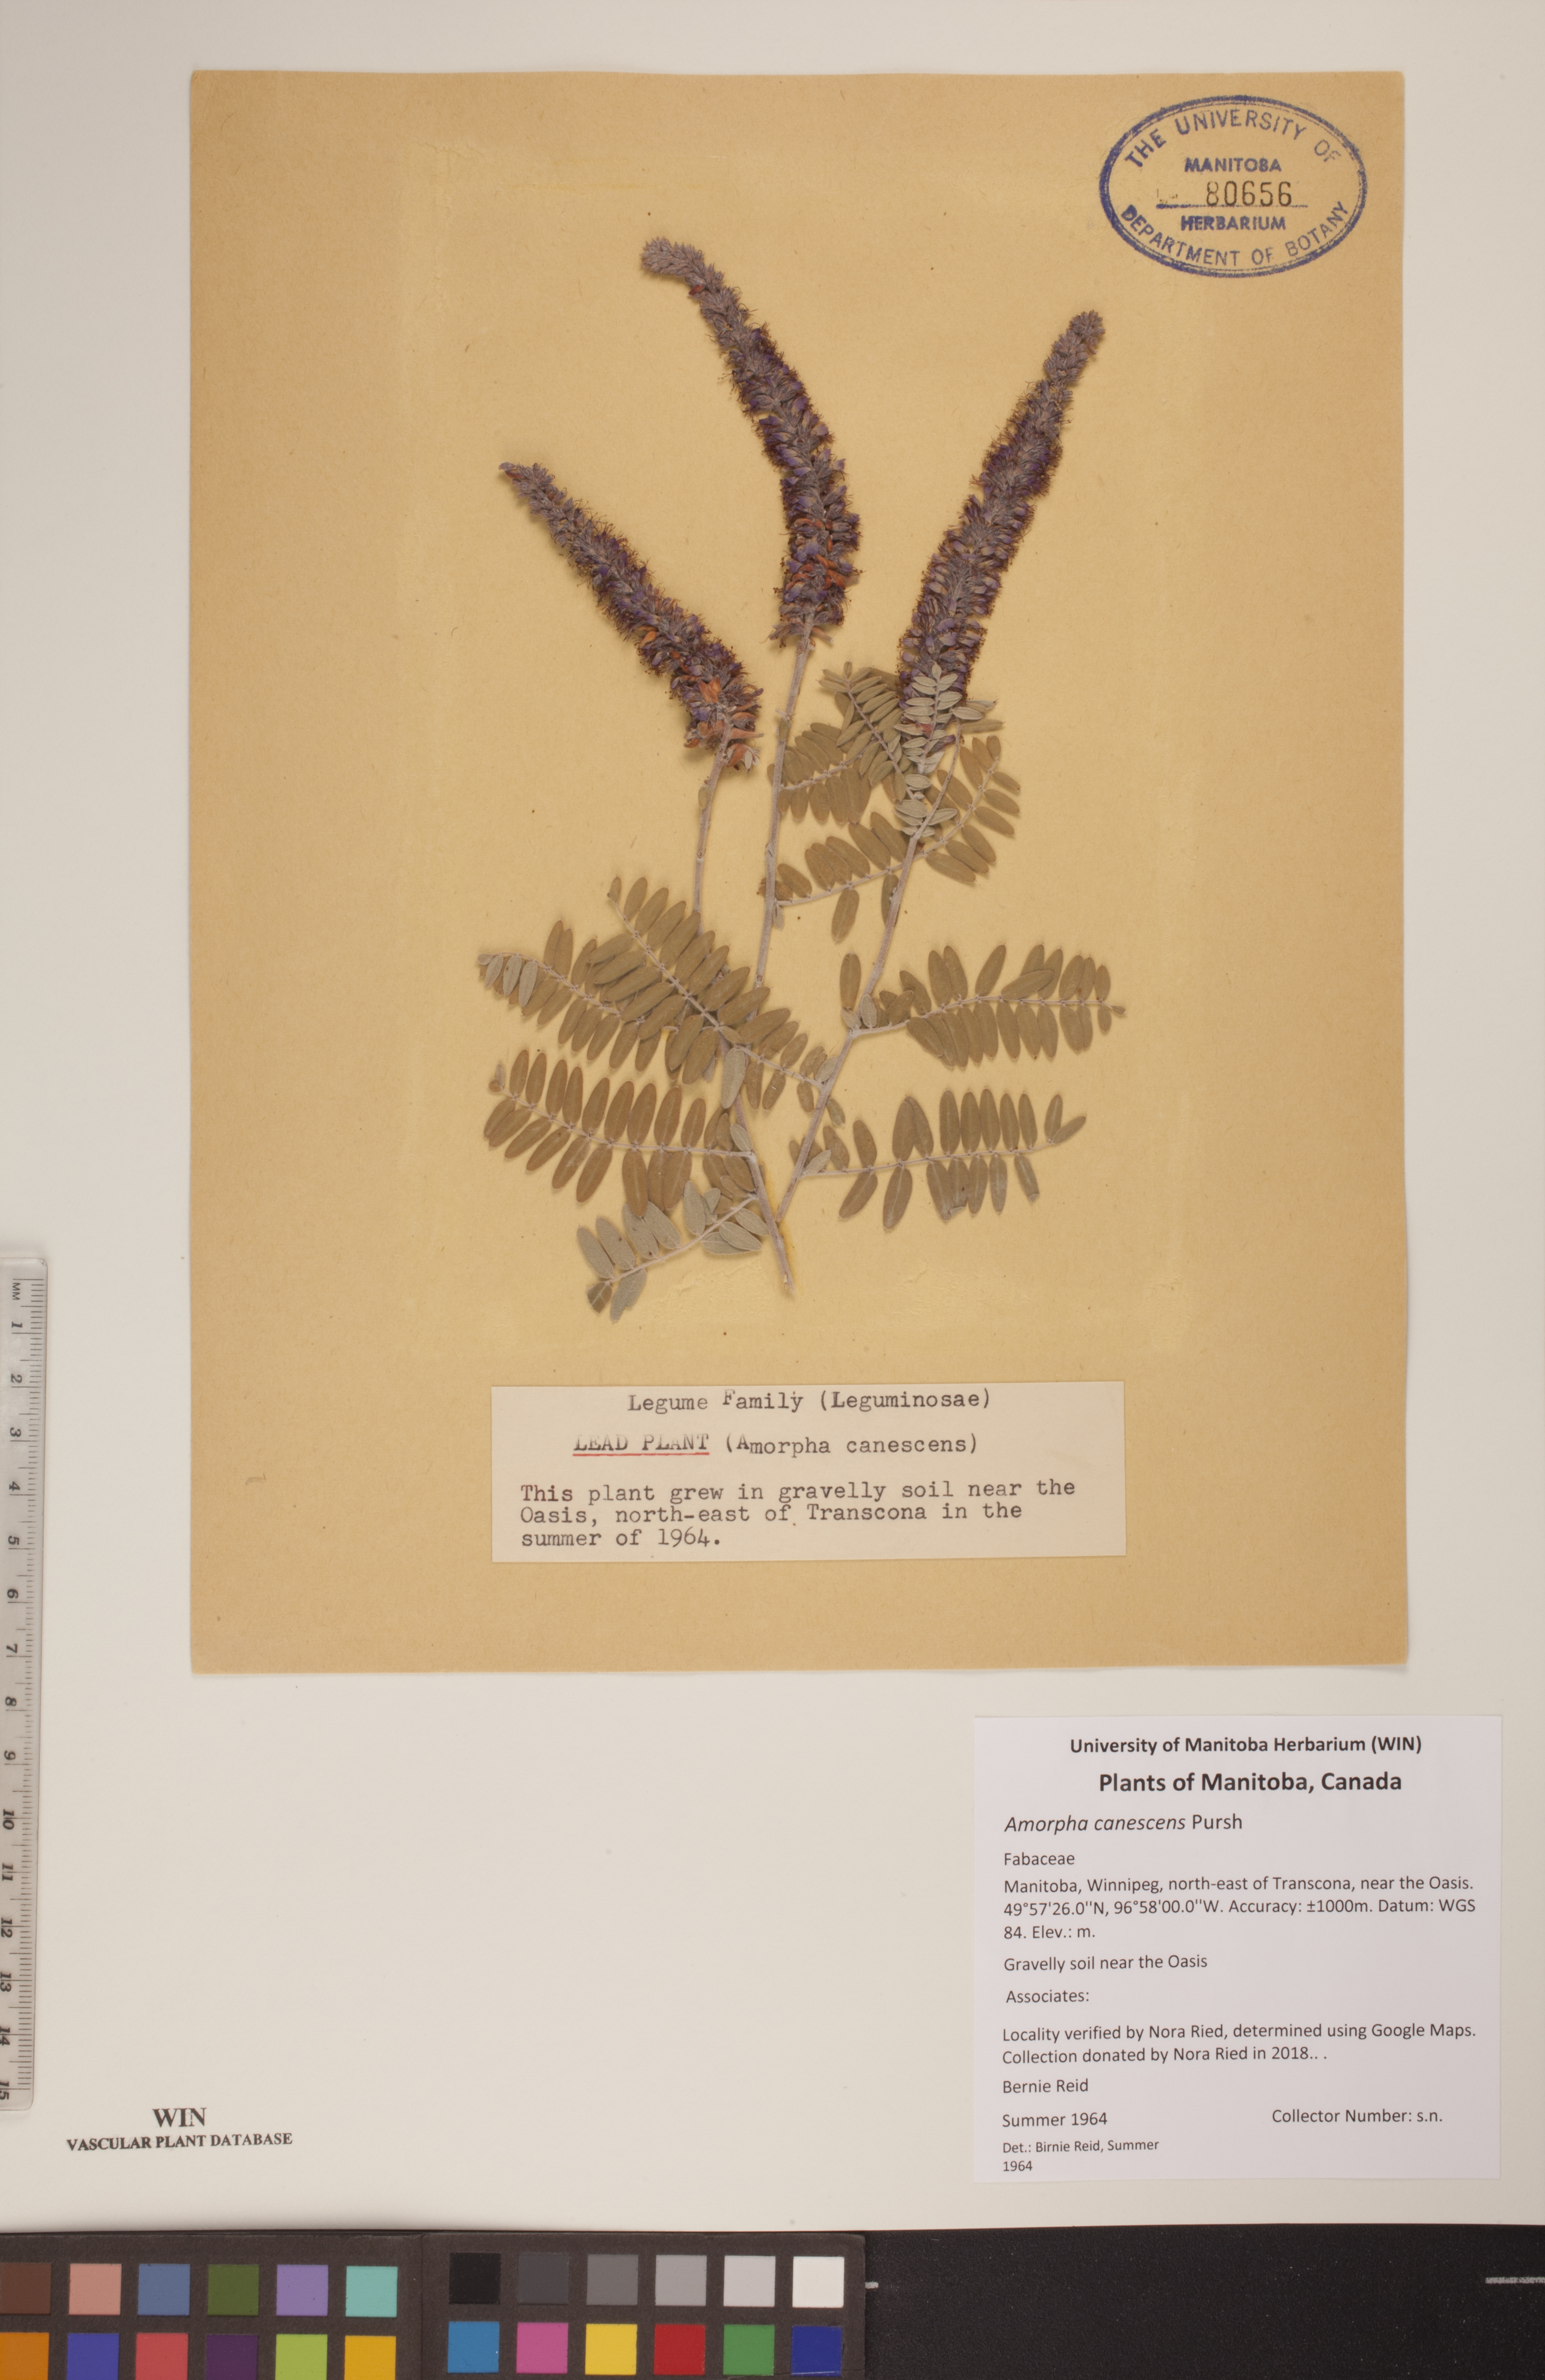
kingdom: Plantae
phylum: Tracheophyta
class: Magnoliopsida
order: Fabales
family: Fabaceae
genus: Amorpha
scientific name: Amorpha canescens
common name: Leadplant
